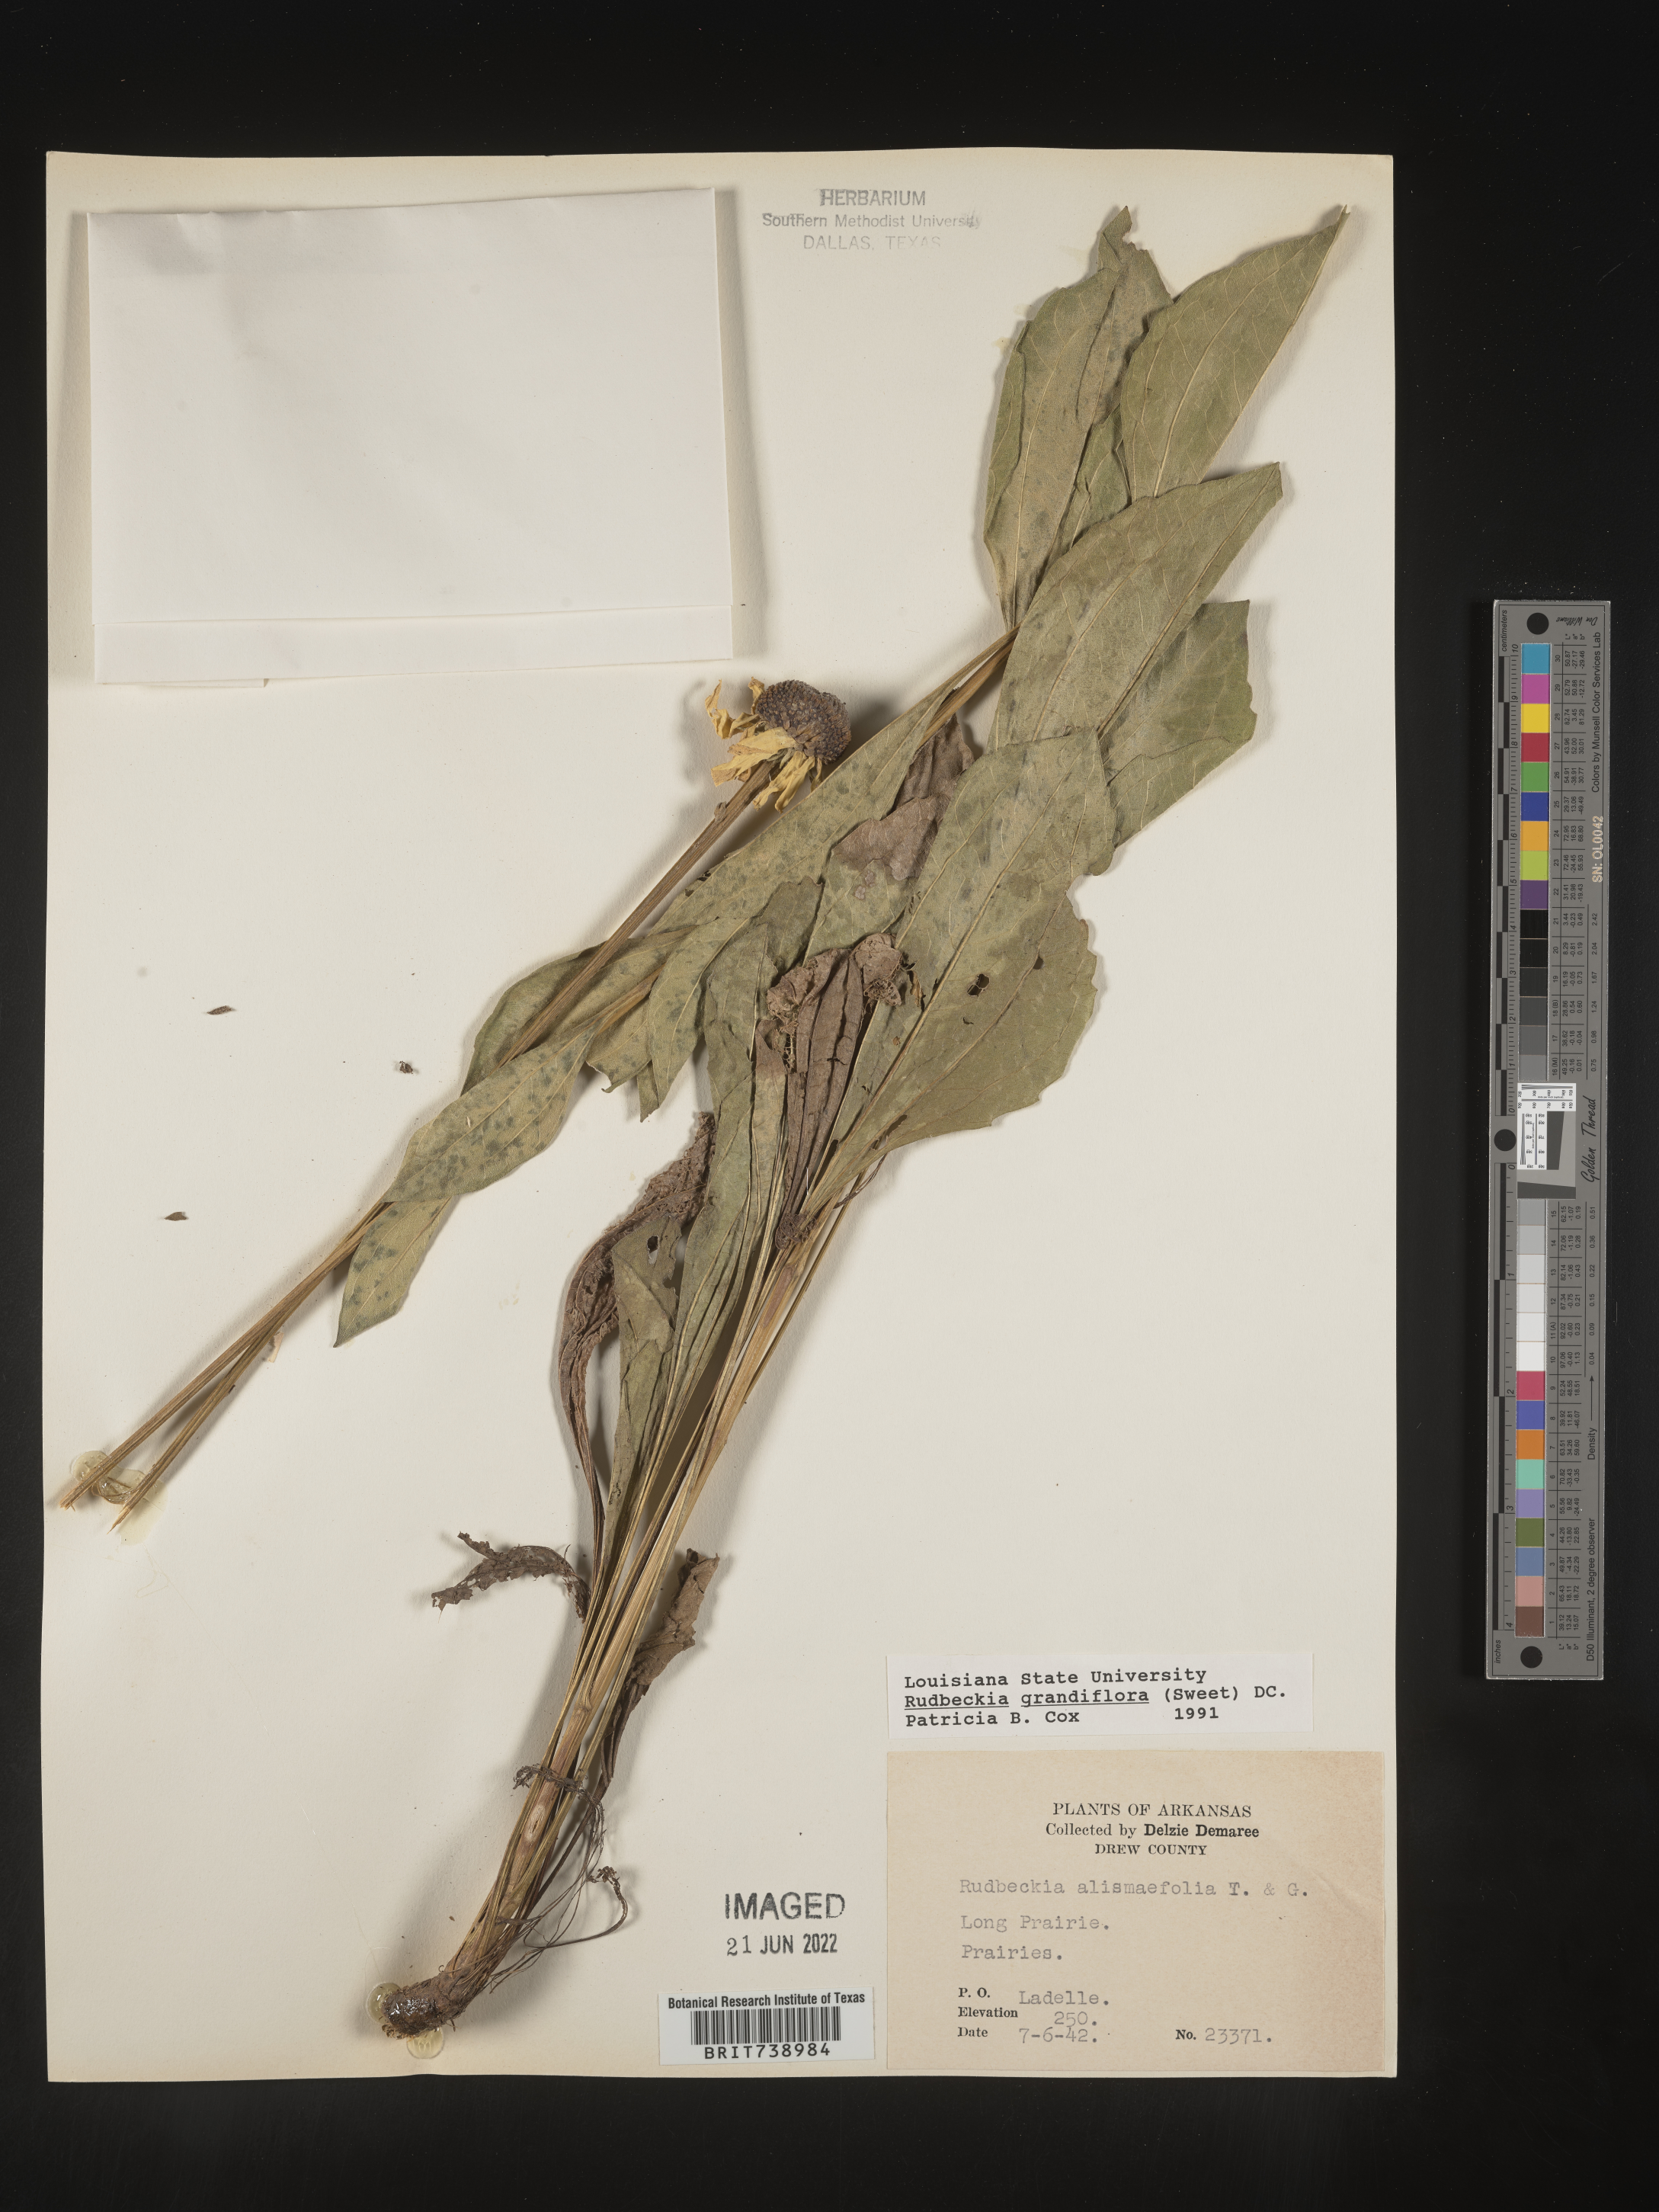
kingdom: Plantae
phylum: Tracheophyta
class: Magnoliopsida
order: Asterales
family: Asteraceae
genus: Rudbeckia
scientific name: Rudbeckia grandiflora
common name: Large-flowered coneflower
